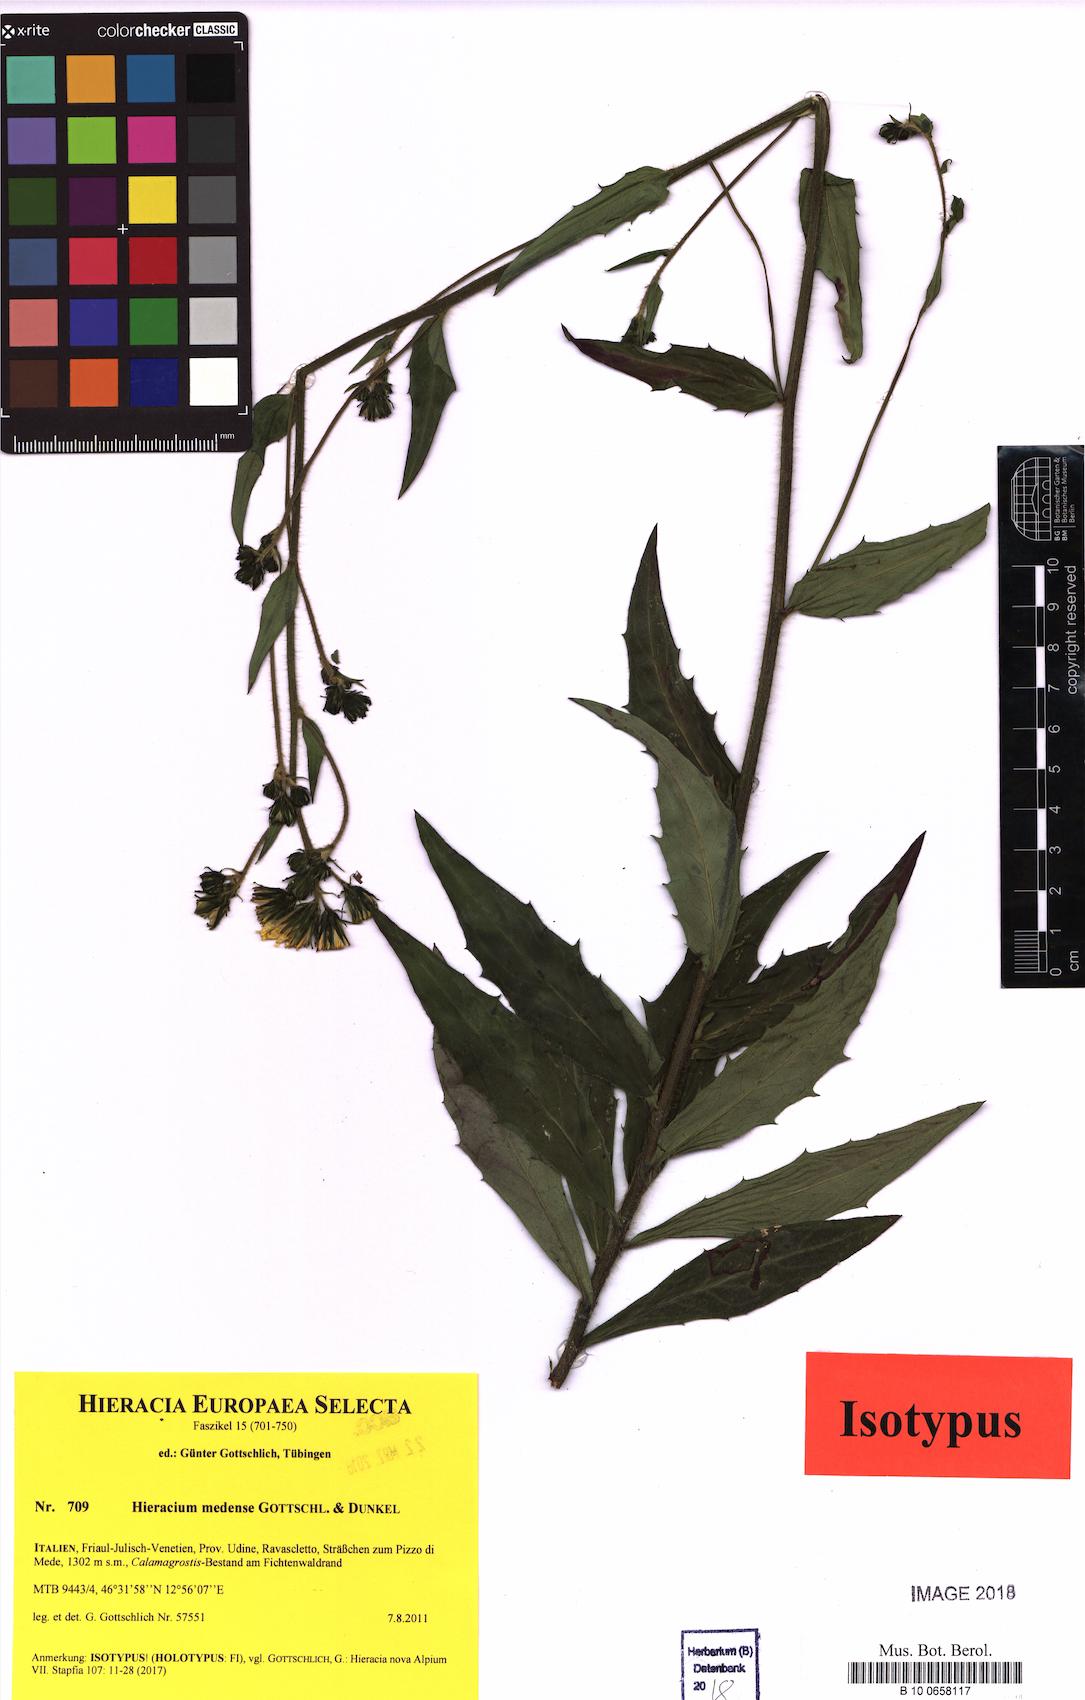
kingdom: Plantae
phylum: Tracheophyta
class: Magnoliopsida
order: Asterales
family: Asteraceae
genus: Hieracium
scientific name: Hieracium medense
